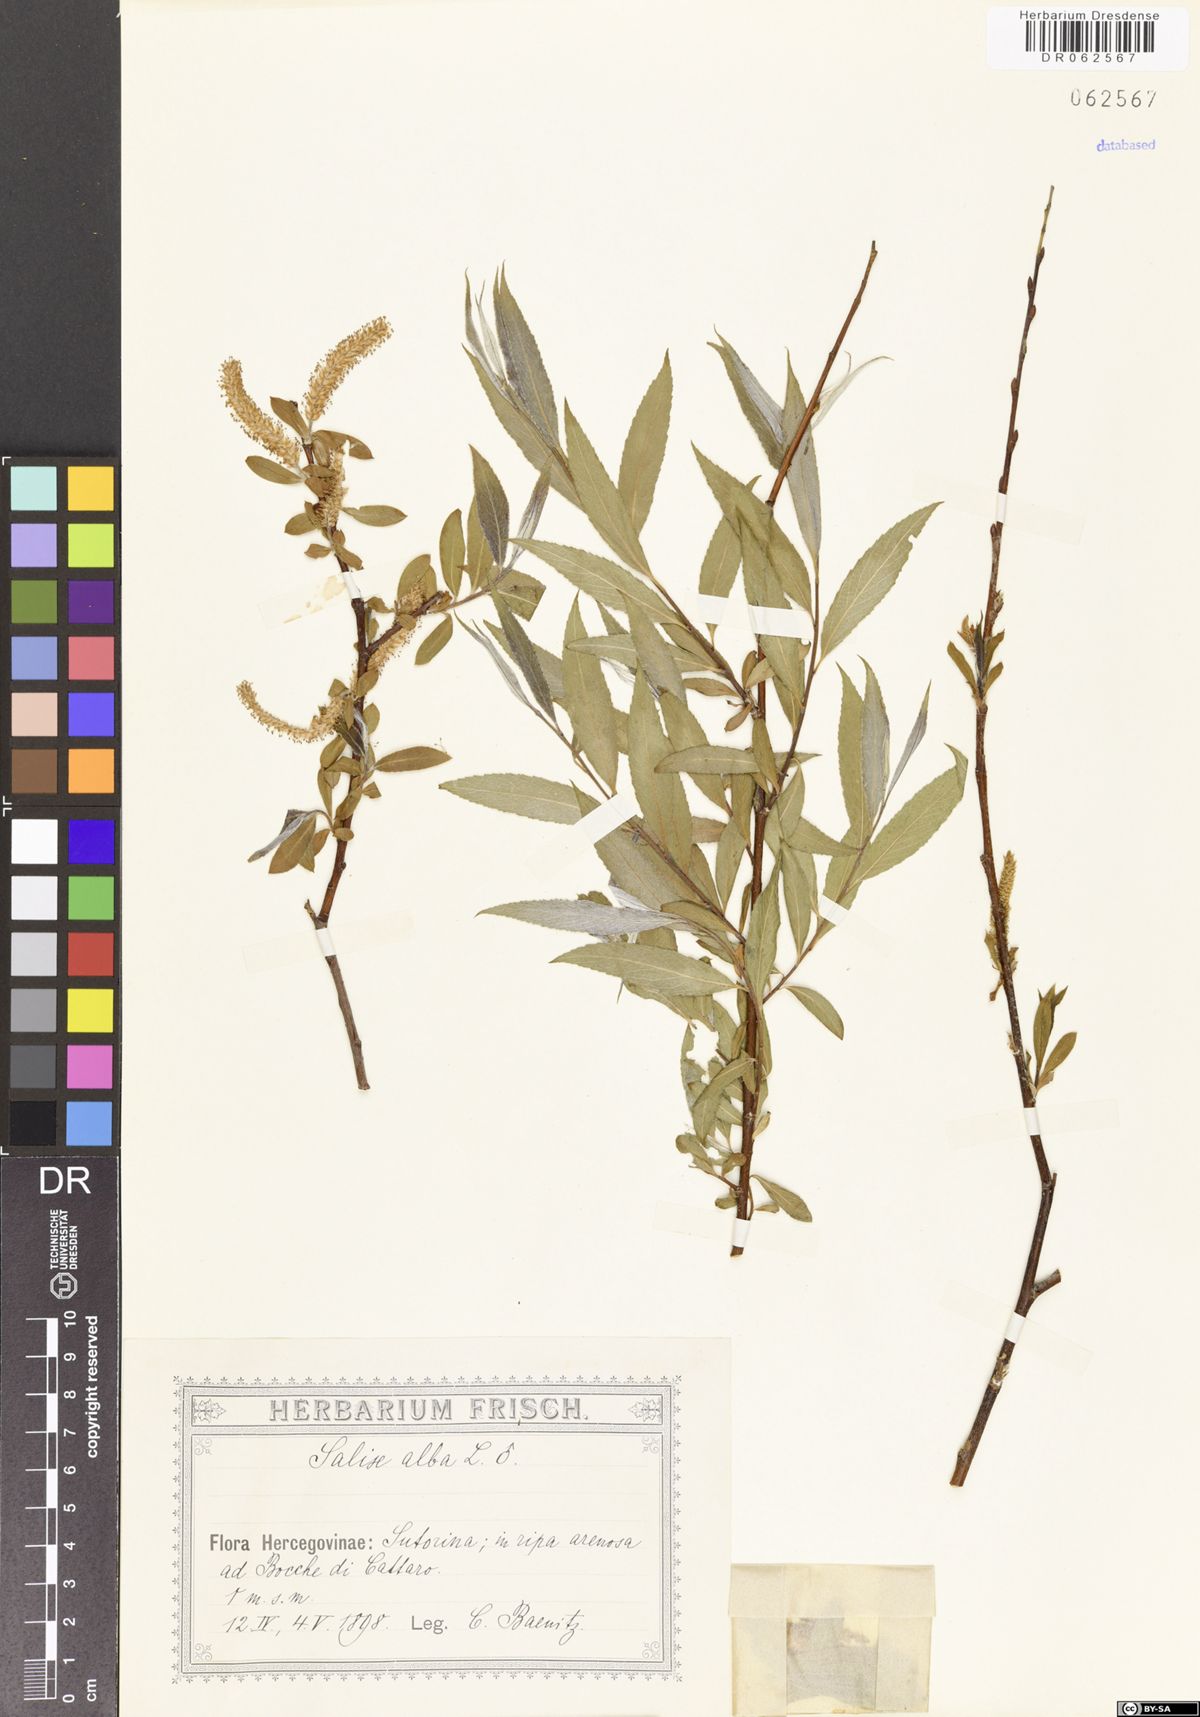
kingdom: Plantae
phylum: Tracheophyta
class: Magnoliopsida
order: Malpighiales
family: Salicaceae
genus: Salix
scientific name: Salix alba
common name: White willow
